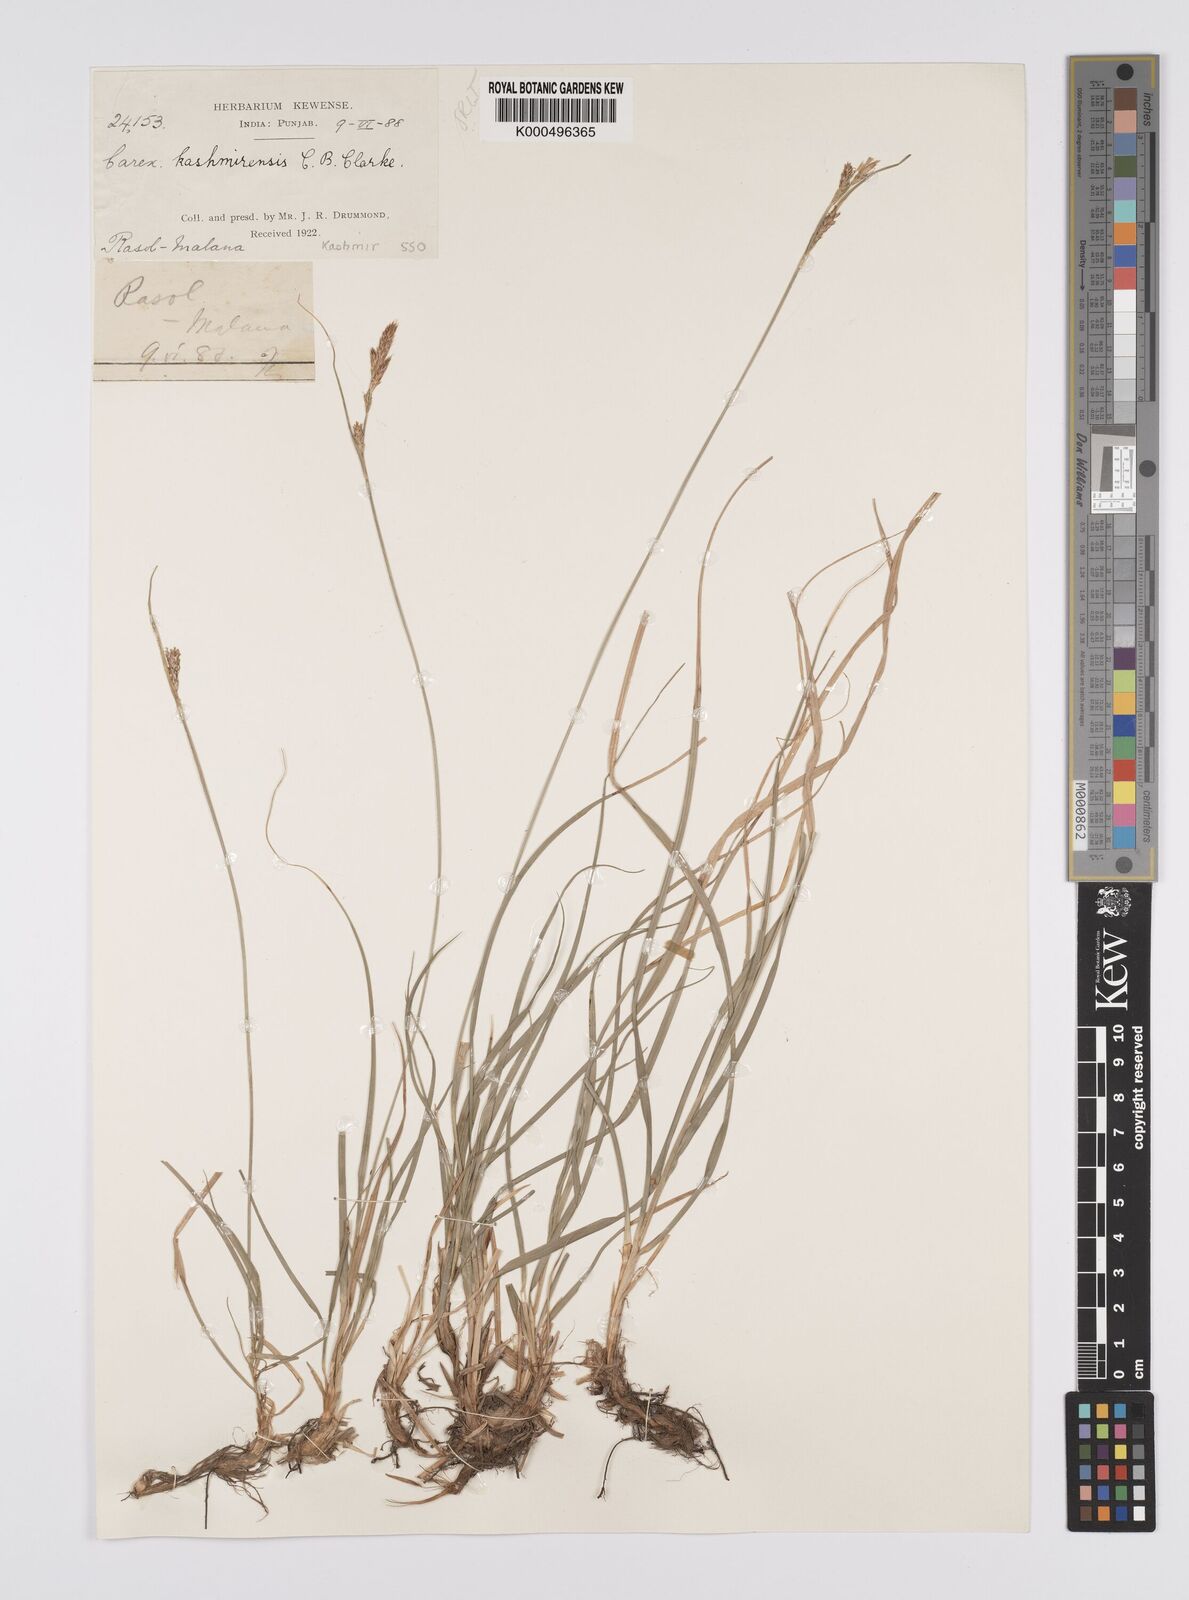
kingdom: Plantae
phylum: Tracheophyta
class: Liliopsida
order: Poales
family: Cyperaceae
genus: Carex
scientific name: Carex kashmirensis
